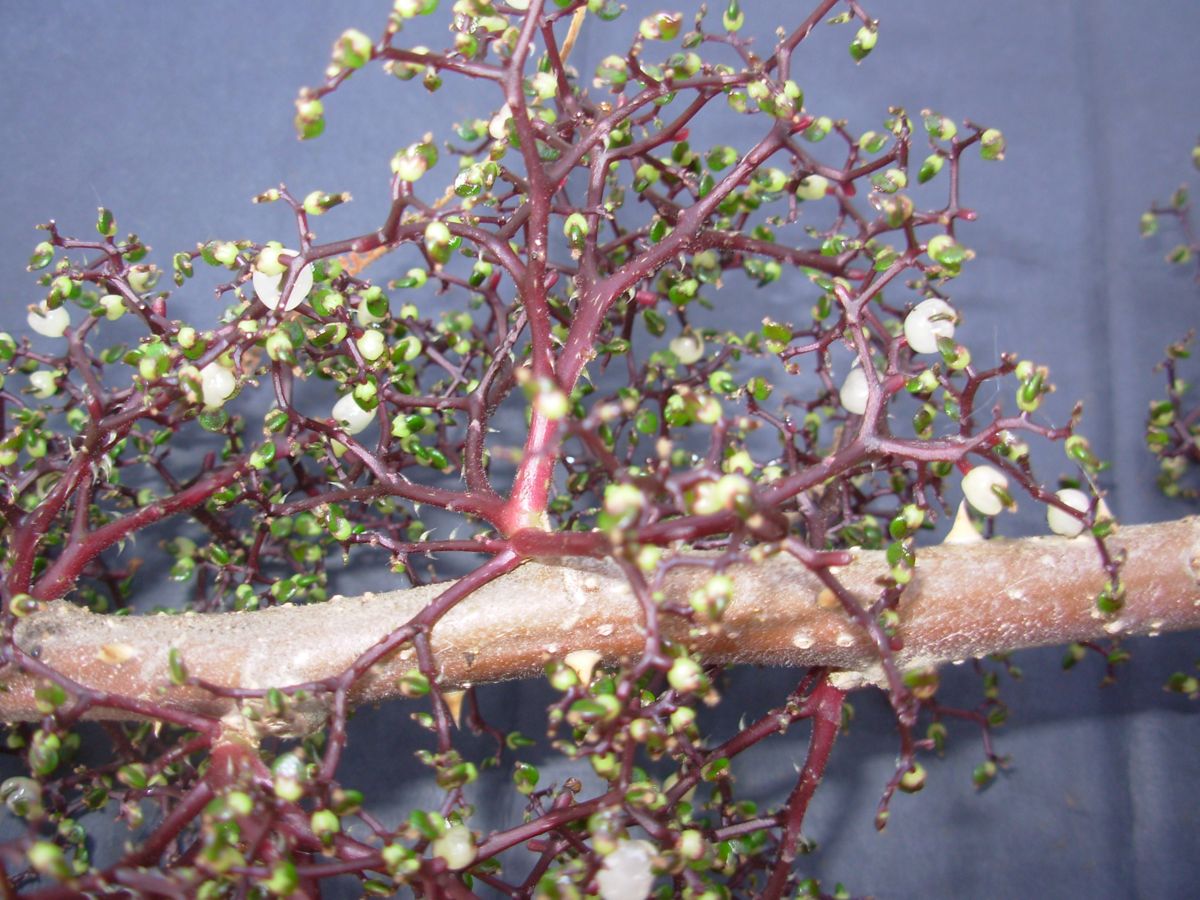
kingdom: Plantae
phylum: Tracheophyta
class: Magnoliopsida
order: Rosales
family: Urticaceae
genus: Urera
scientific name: Urera baccifera
